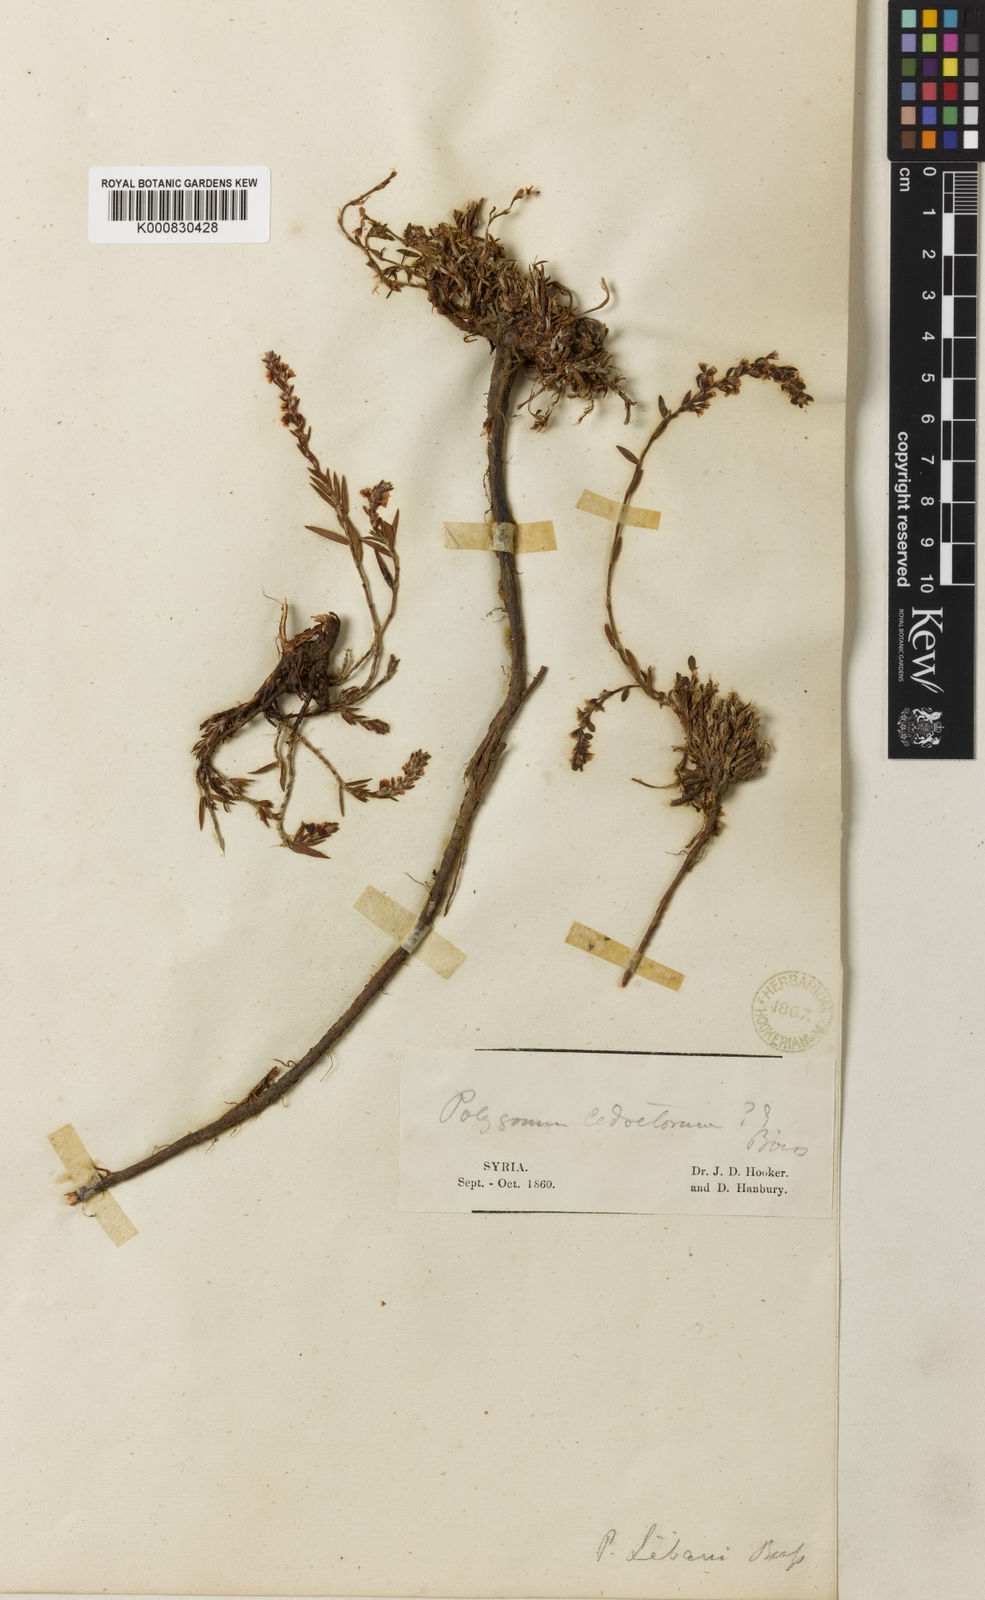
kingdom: Plantae
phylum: Tracheophyta
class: Magnoliopsida
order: Caryophyllales
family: Polygonaceae
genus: Polygonum
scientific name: Polygonum libani
